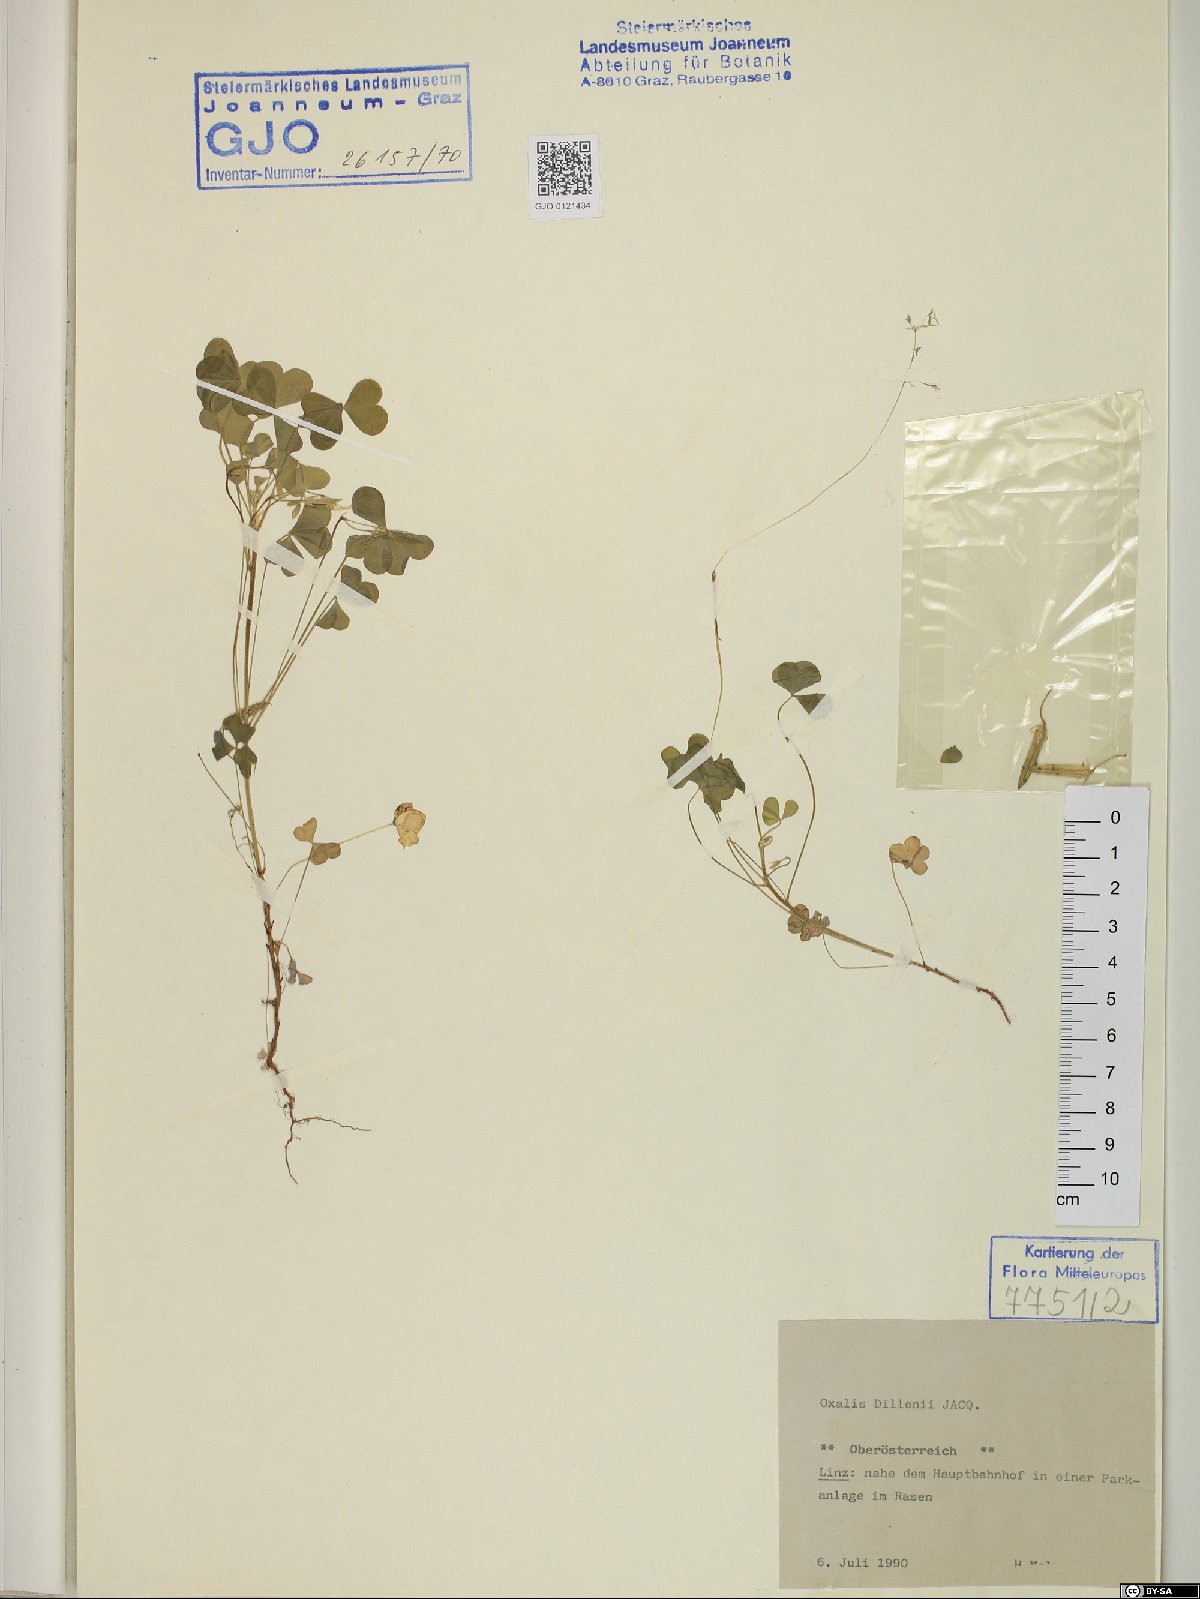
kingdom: Plantae
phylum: Tracheophyta
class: Magnoliopsida
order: Oxalidales
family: Oxalidaceae
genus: Oxalis
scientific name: Oxalis dillenii
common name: Sussex yellow-sorrel
